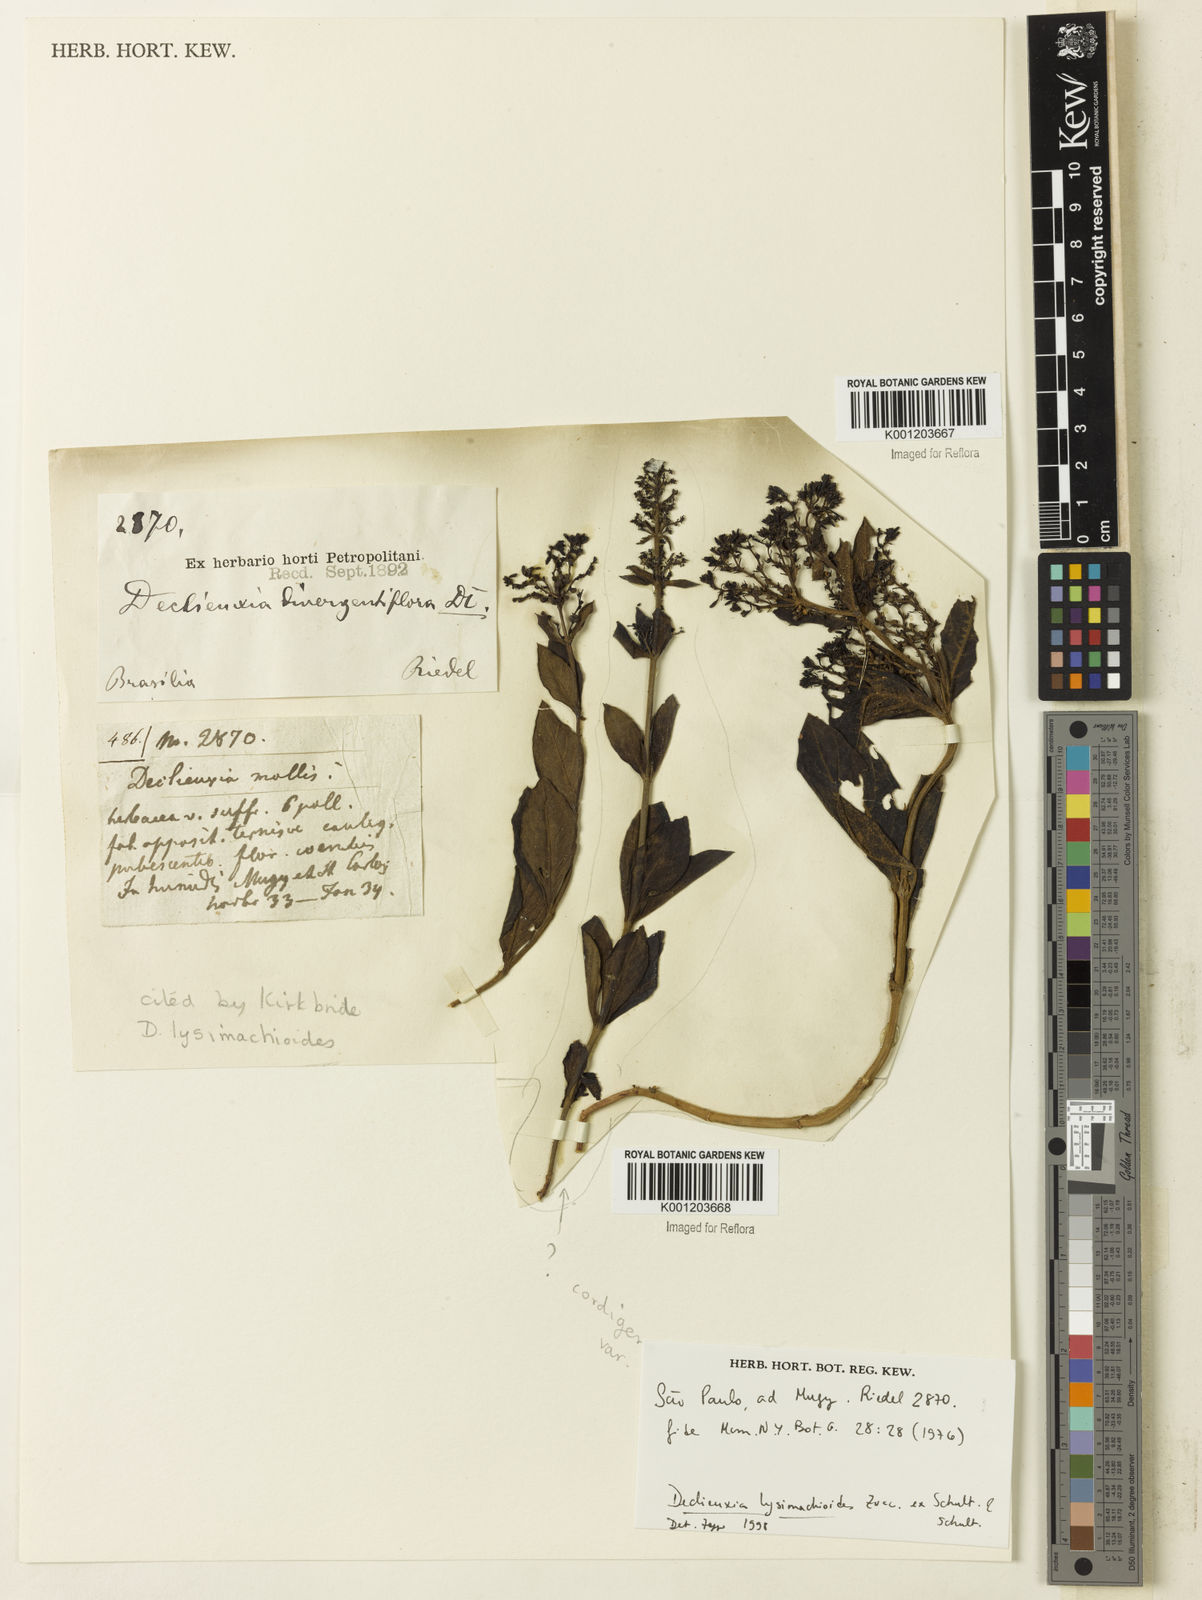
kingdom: Plantae
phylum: Tracheophyta
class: Magnoliopsida
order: Gentianales
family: Rubiaceae
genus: Declieuxia
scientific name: Declieuxia
